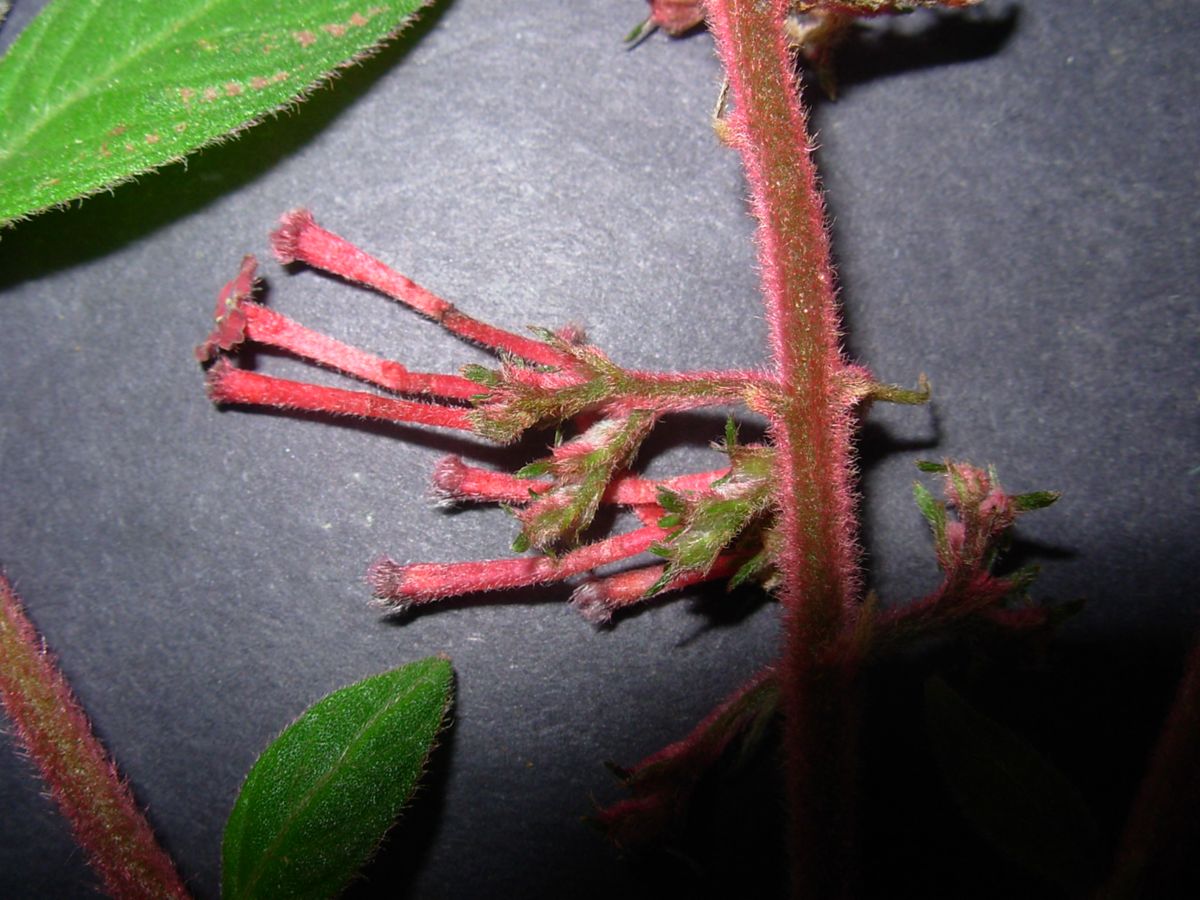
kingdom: Plantae
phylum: Tracheophyta
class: Magnoliopsida
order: Gentianales
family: Rubiaceae
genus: Arachnothryx
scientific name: Arachnothryx rufescens
